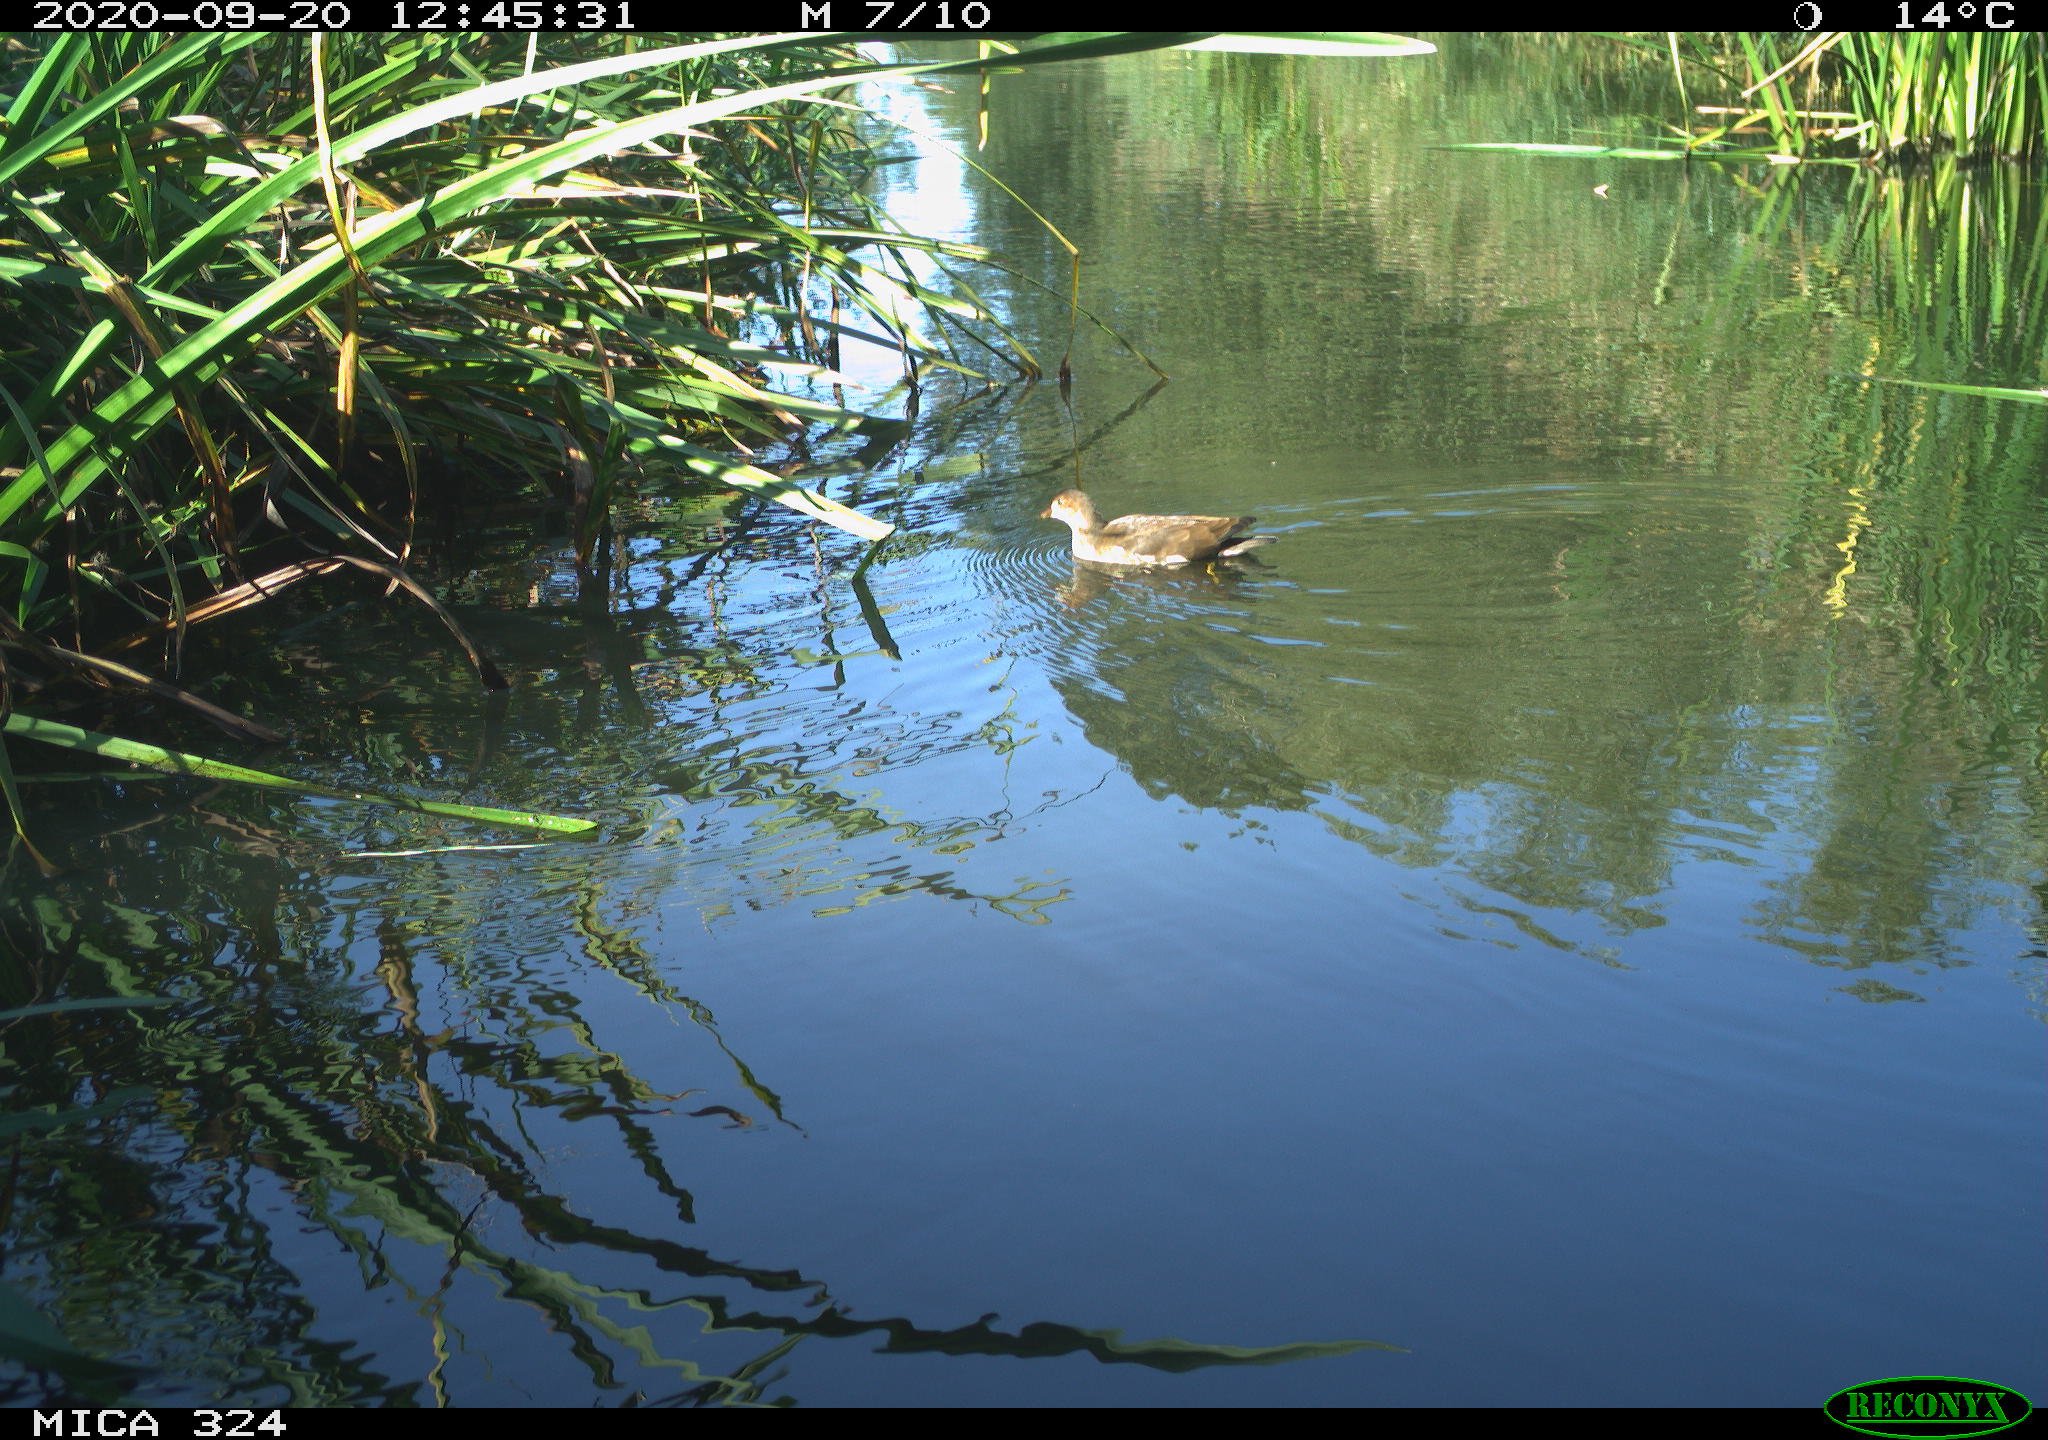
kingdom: Animalia
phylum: Chordata
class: Aves
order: Gruiformes
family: Rallidae
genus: Gallinula
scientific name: Gallinula chloropus
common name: Common moorhen
